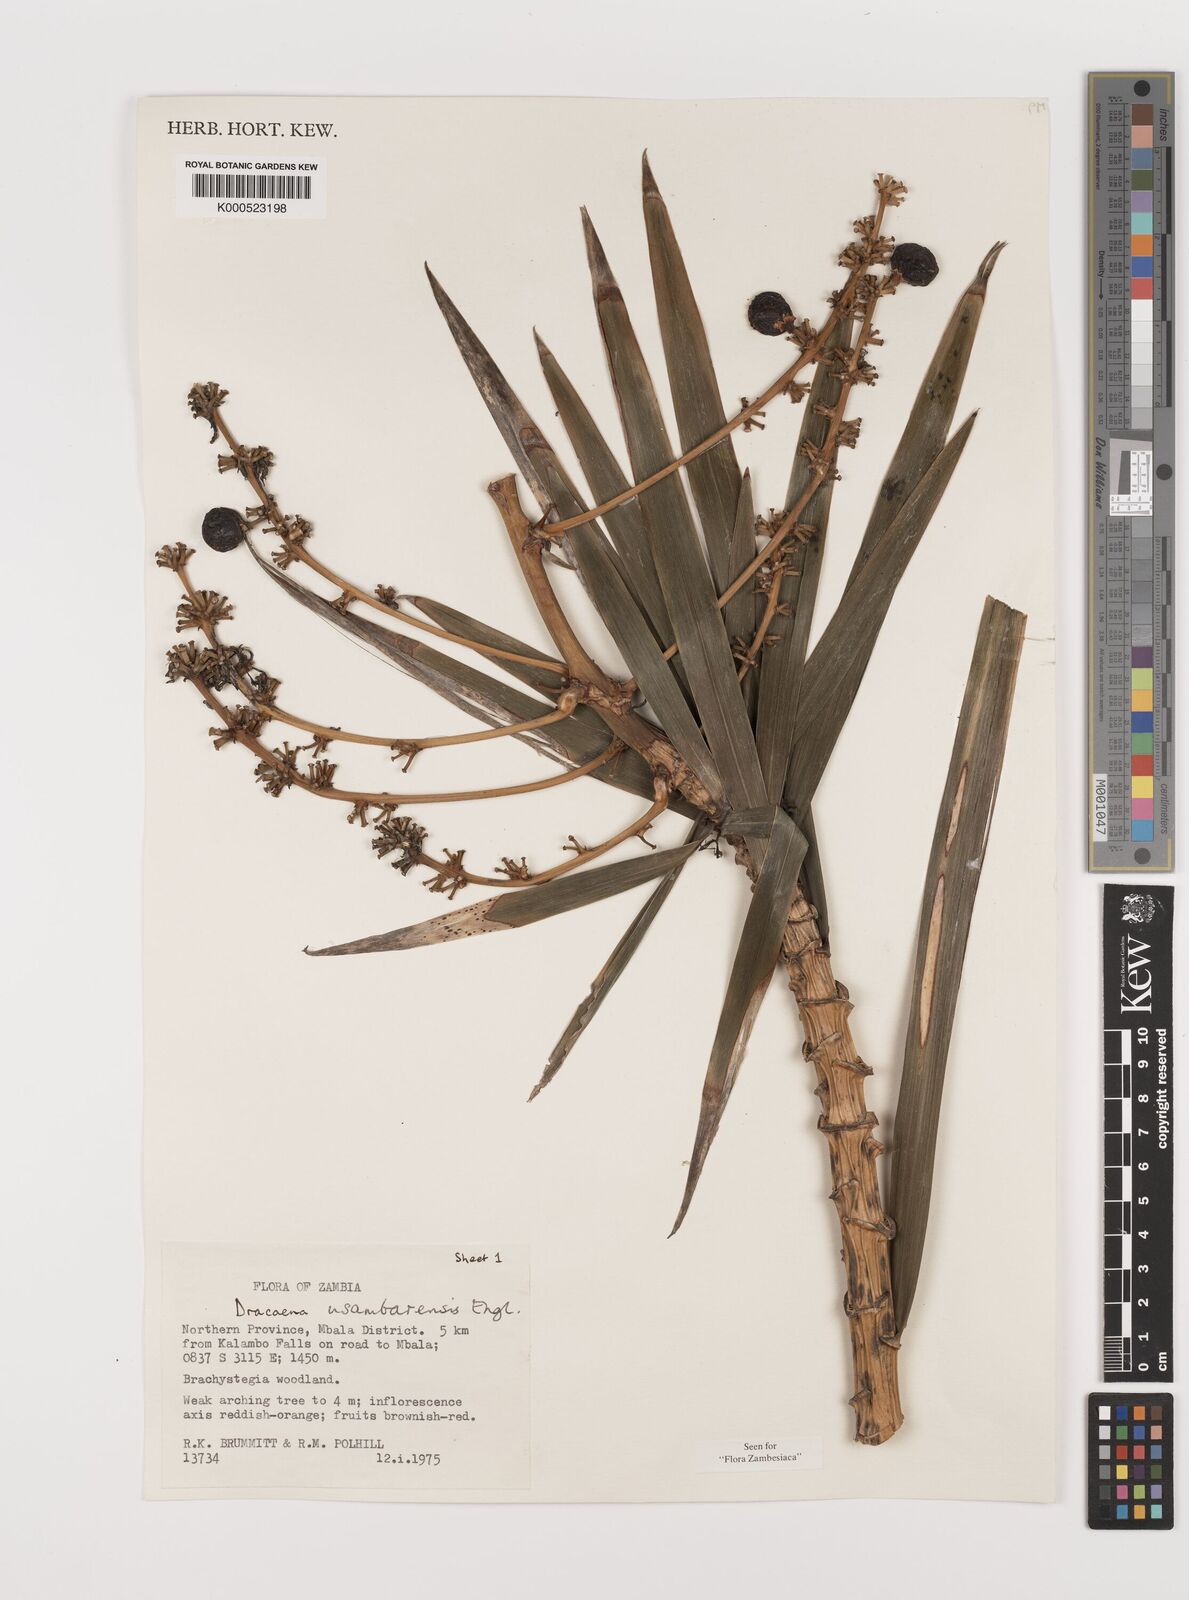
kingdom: Plantae
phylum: Tracheophyta
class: Liliopsida
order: Asparagales
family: Asparagaceae
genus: Dracaena
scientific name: Dracaena usambarensis
